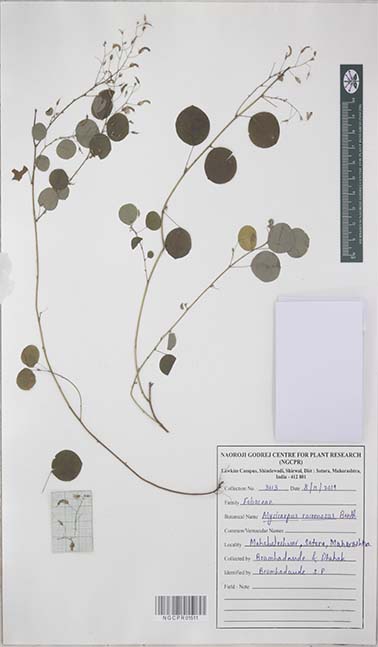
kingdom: Plantae
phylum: Tracheophyta
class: Magnoliopsida
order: Fabales
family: Fabaceae
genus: Alysicarpus
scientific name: Alysicarpus racemosus
